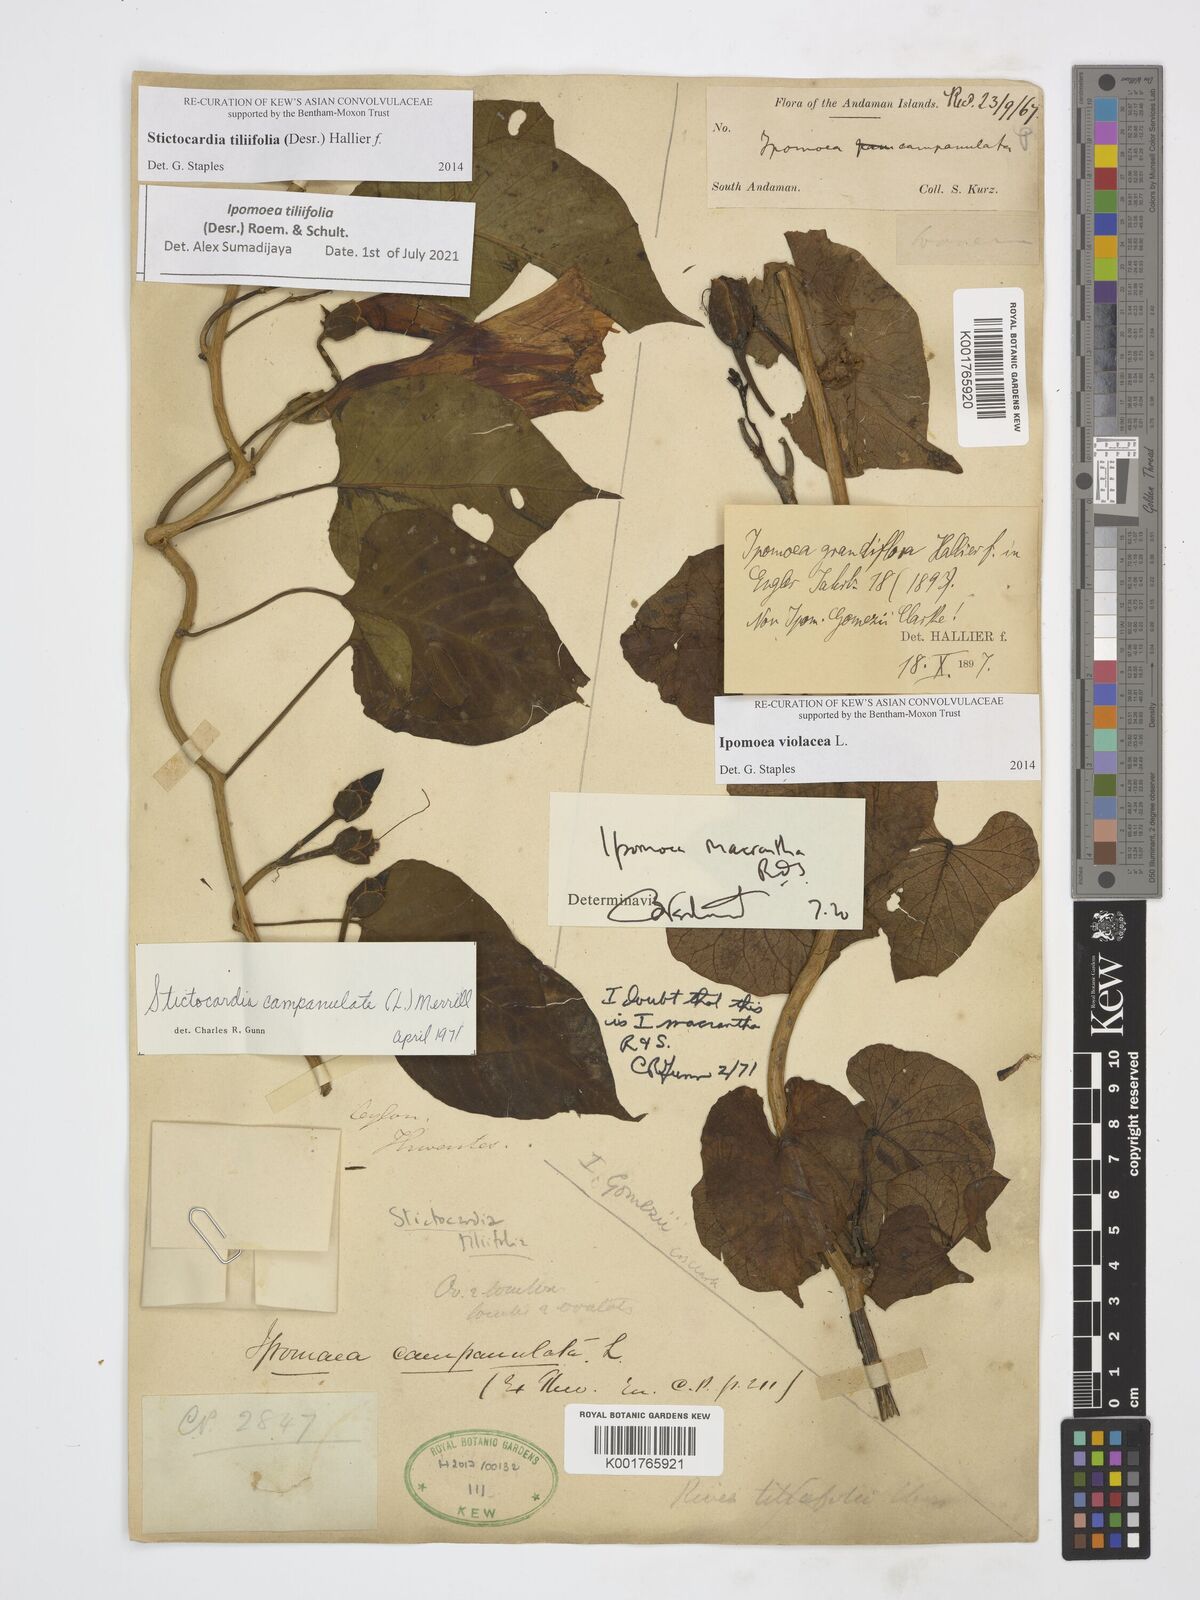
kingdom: Plantae
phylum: Tracheophyta
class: Magnoliopsida
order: Solanales
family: Convolvulaceae
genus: Stictocardia
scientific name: Stictocardia tiliifolia
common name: Spottedheart
